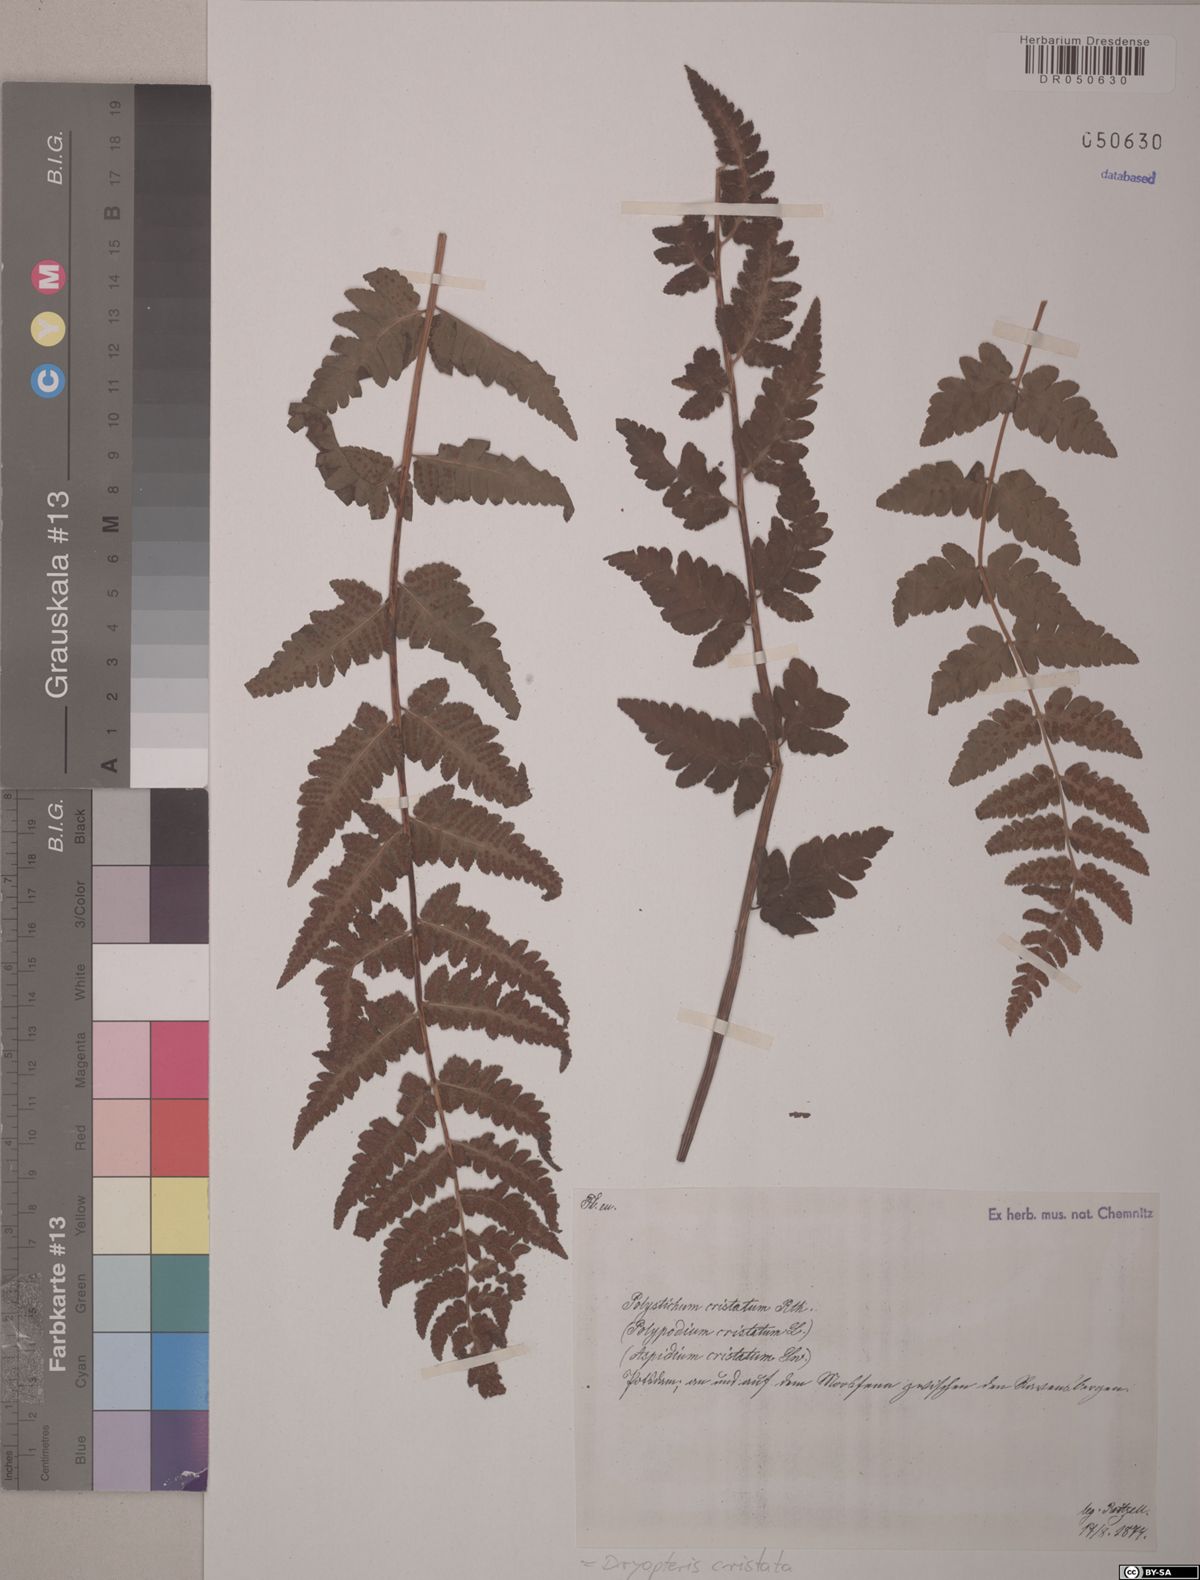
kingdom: Plantae
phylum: Tracheophyta
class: Polypodiopsida
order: Polypodiales
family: Dryopteridaceae
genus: Dryopteris
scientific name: Dryopteris cristata
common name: Crested wood fern
